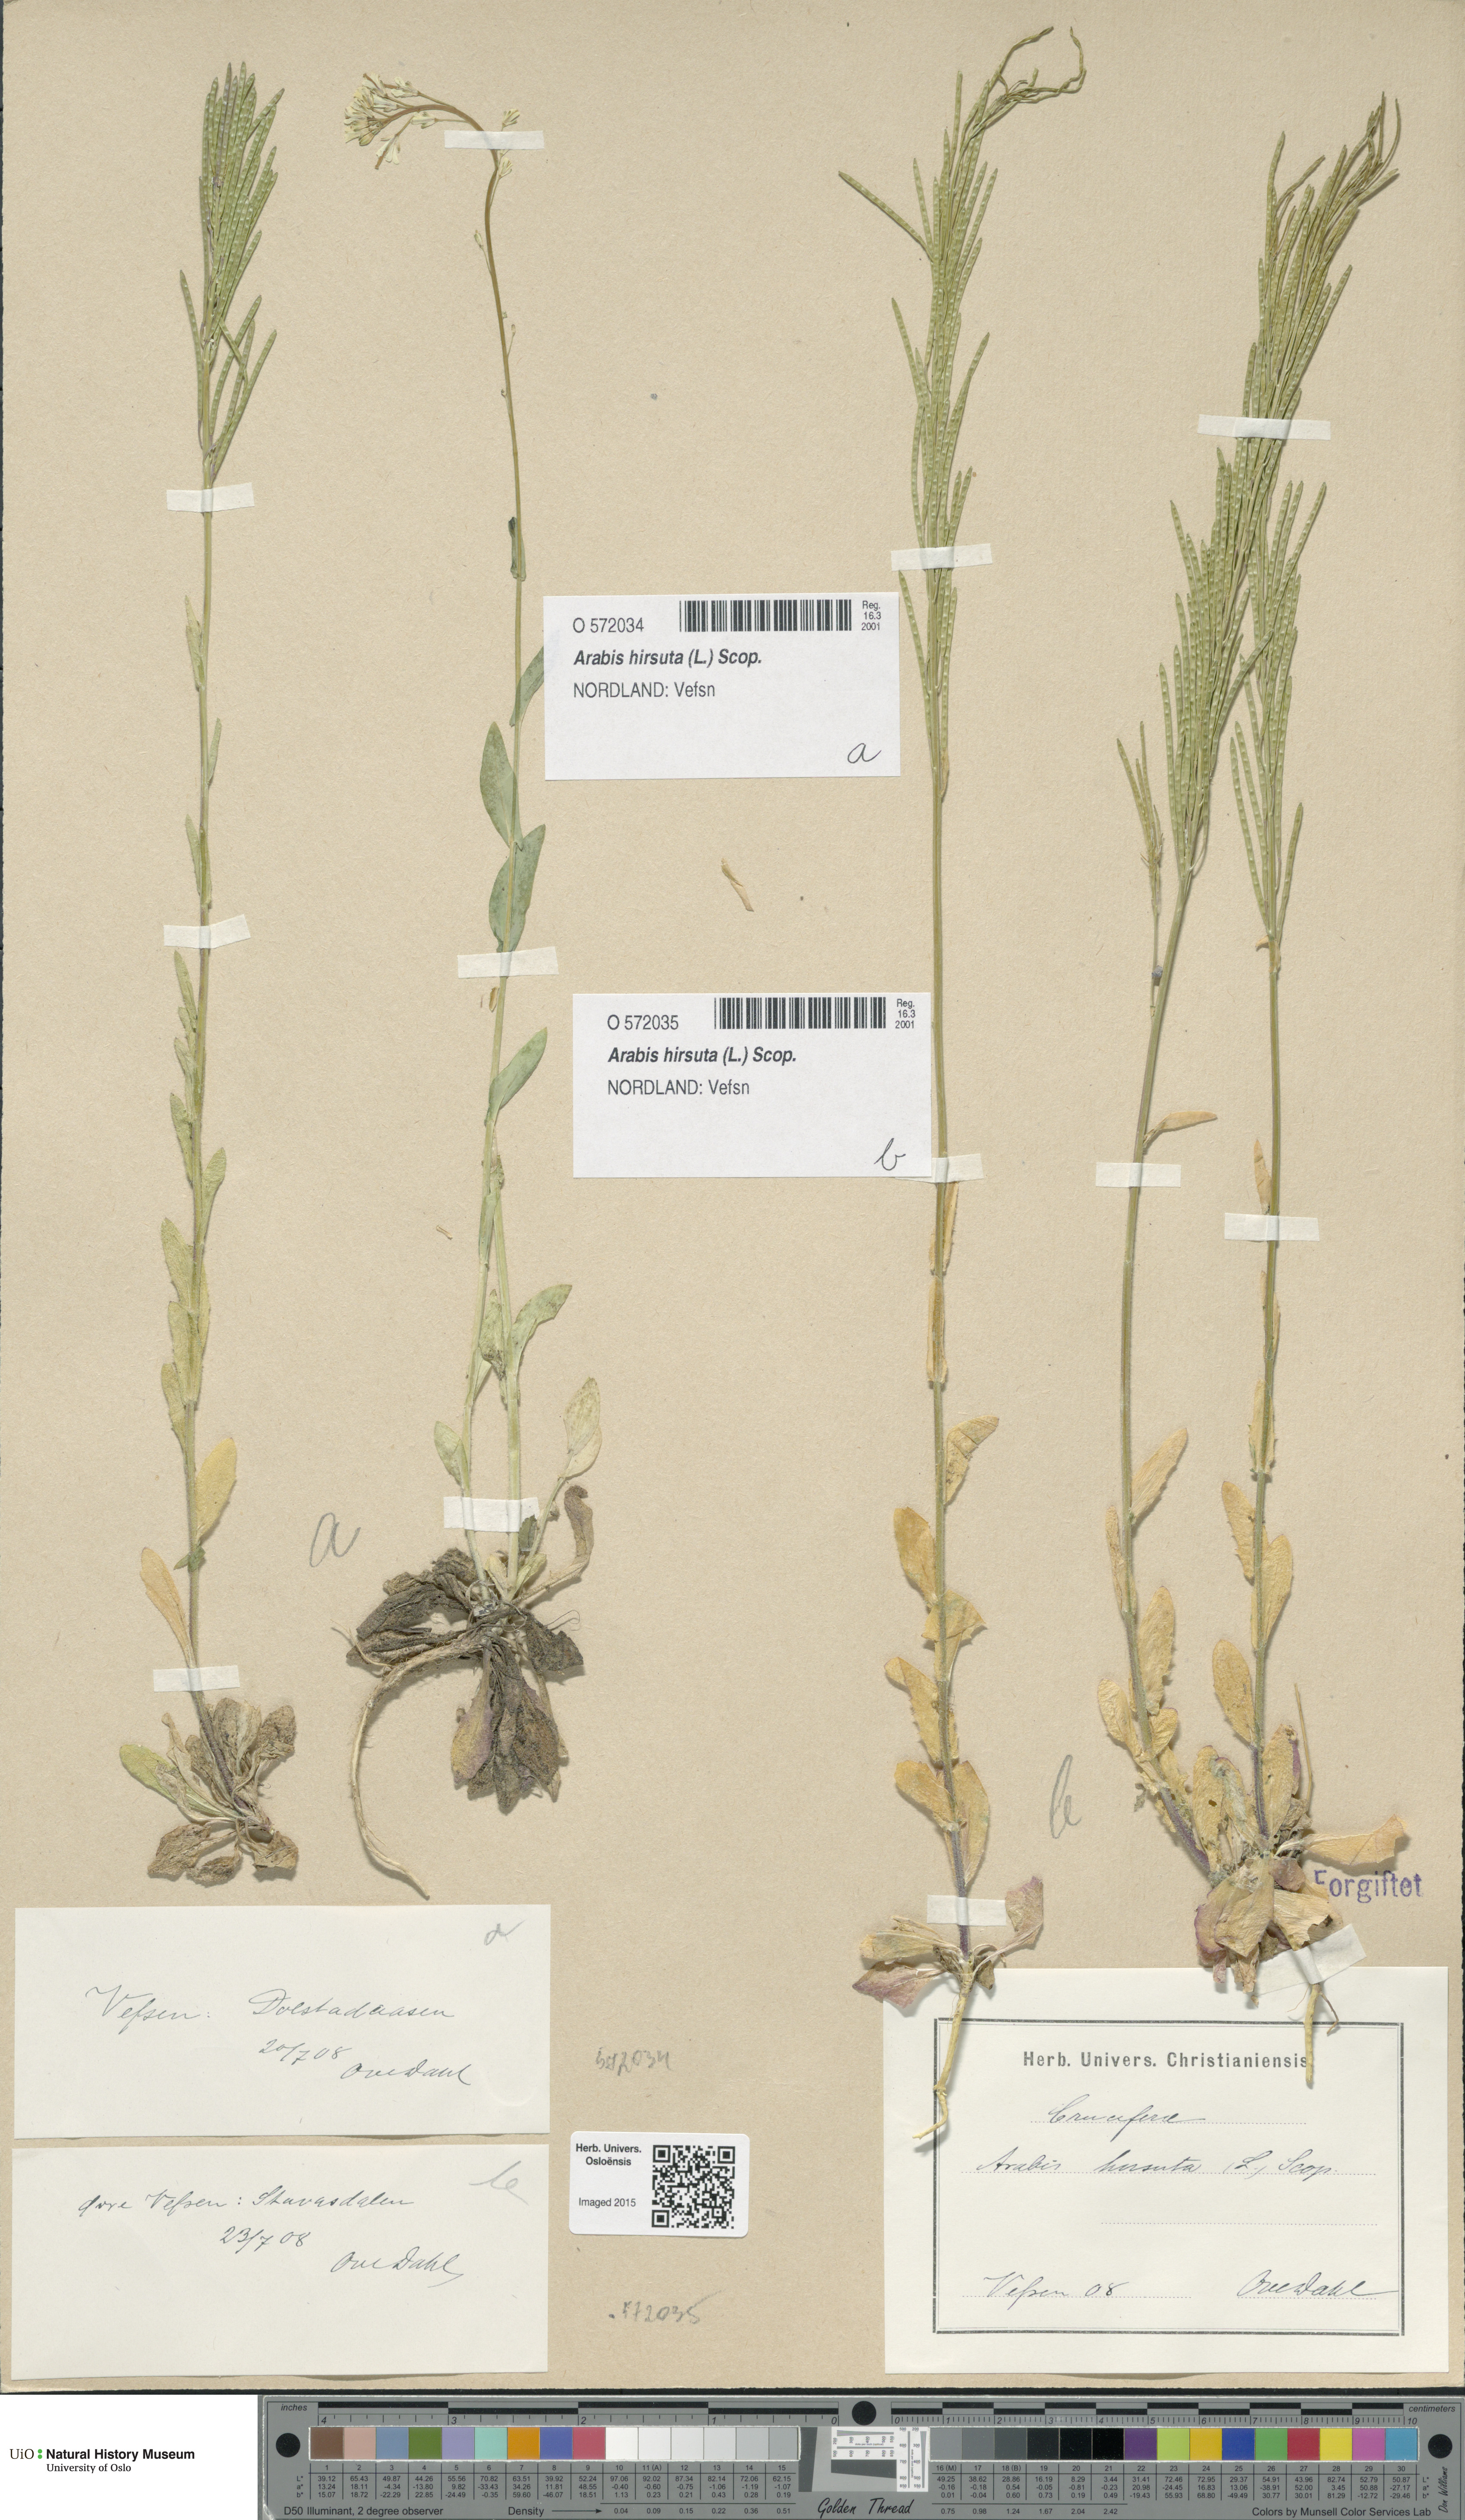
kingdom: Plantae
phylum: Tracheophyta
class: Magnoliopsida
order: Brassicales
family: Brassicaceae
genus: Arabis
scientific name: Arabis hirsuta
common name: Hairy rock-cress
